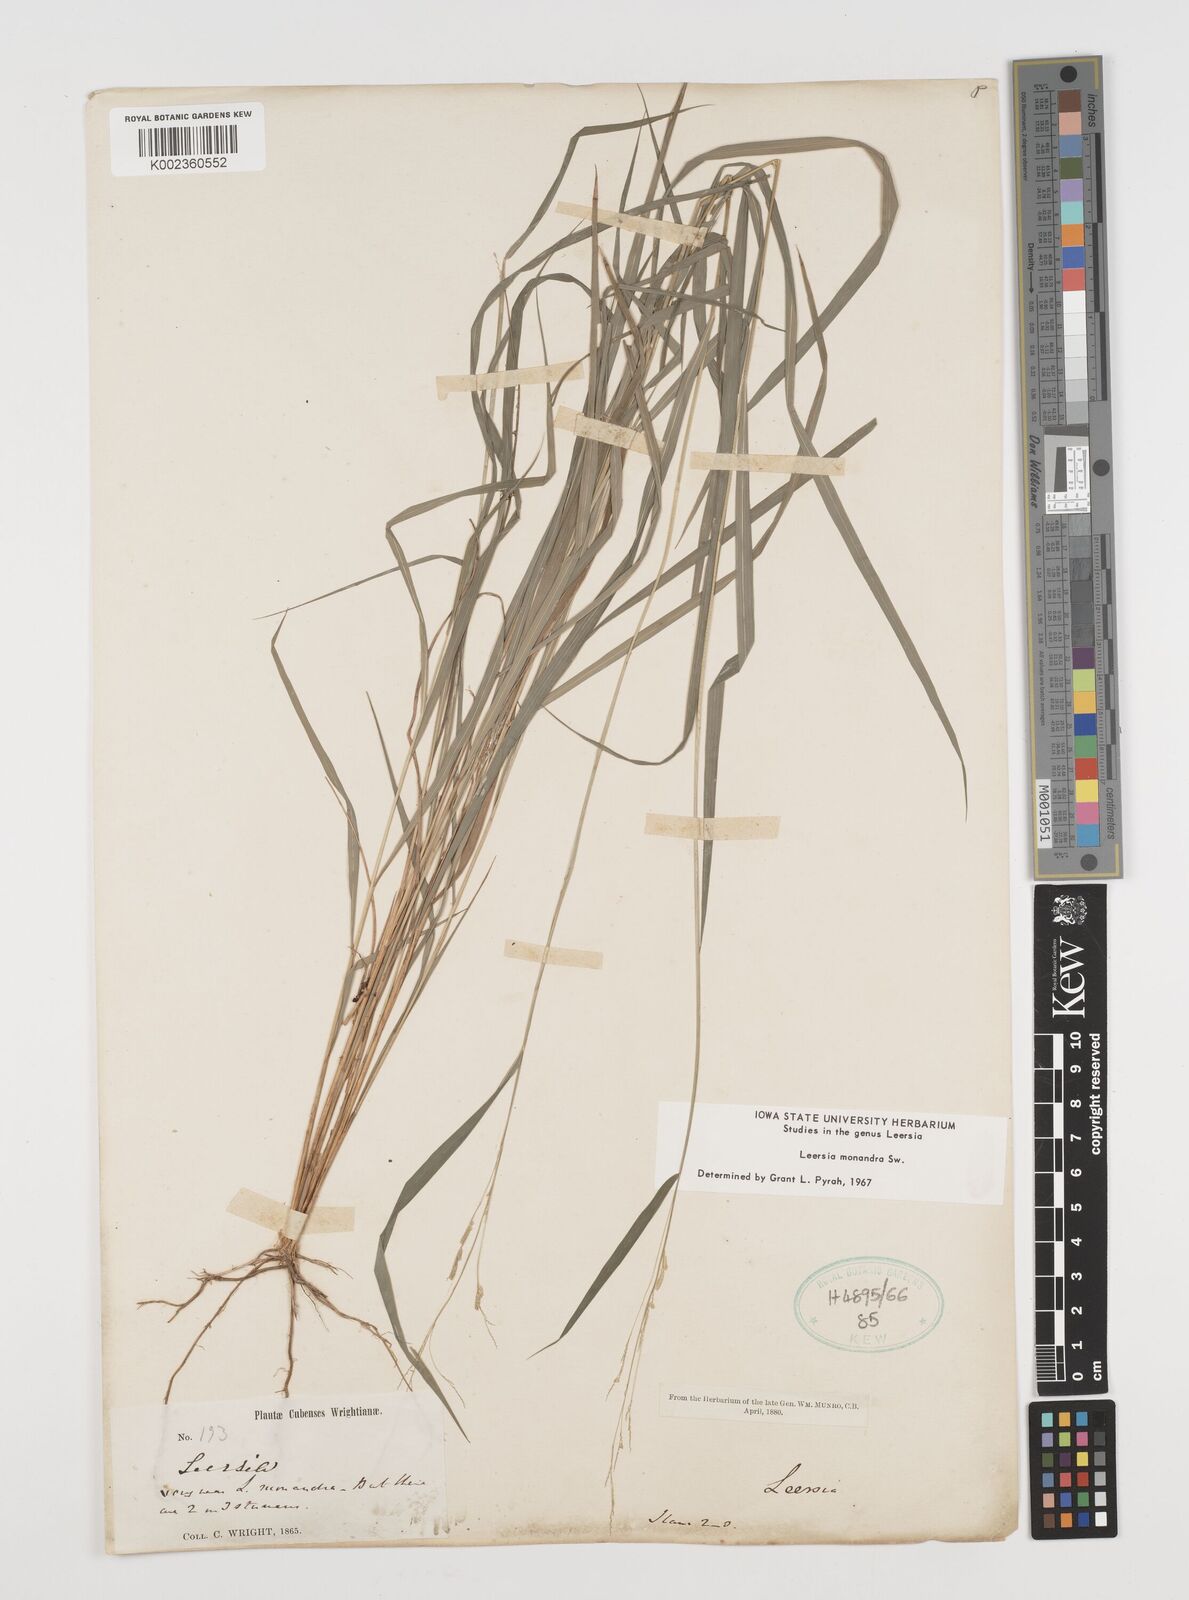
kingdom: Plantae
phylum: Tracheophyta
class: Liliopsida
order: Poales
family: Poaceae
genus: Leersia
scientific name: Leersia monandra
